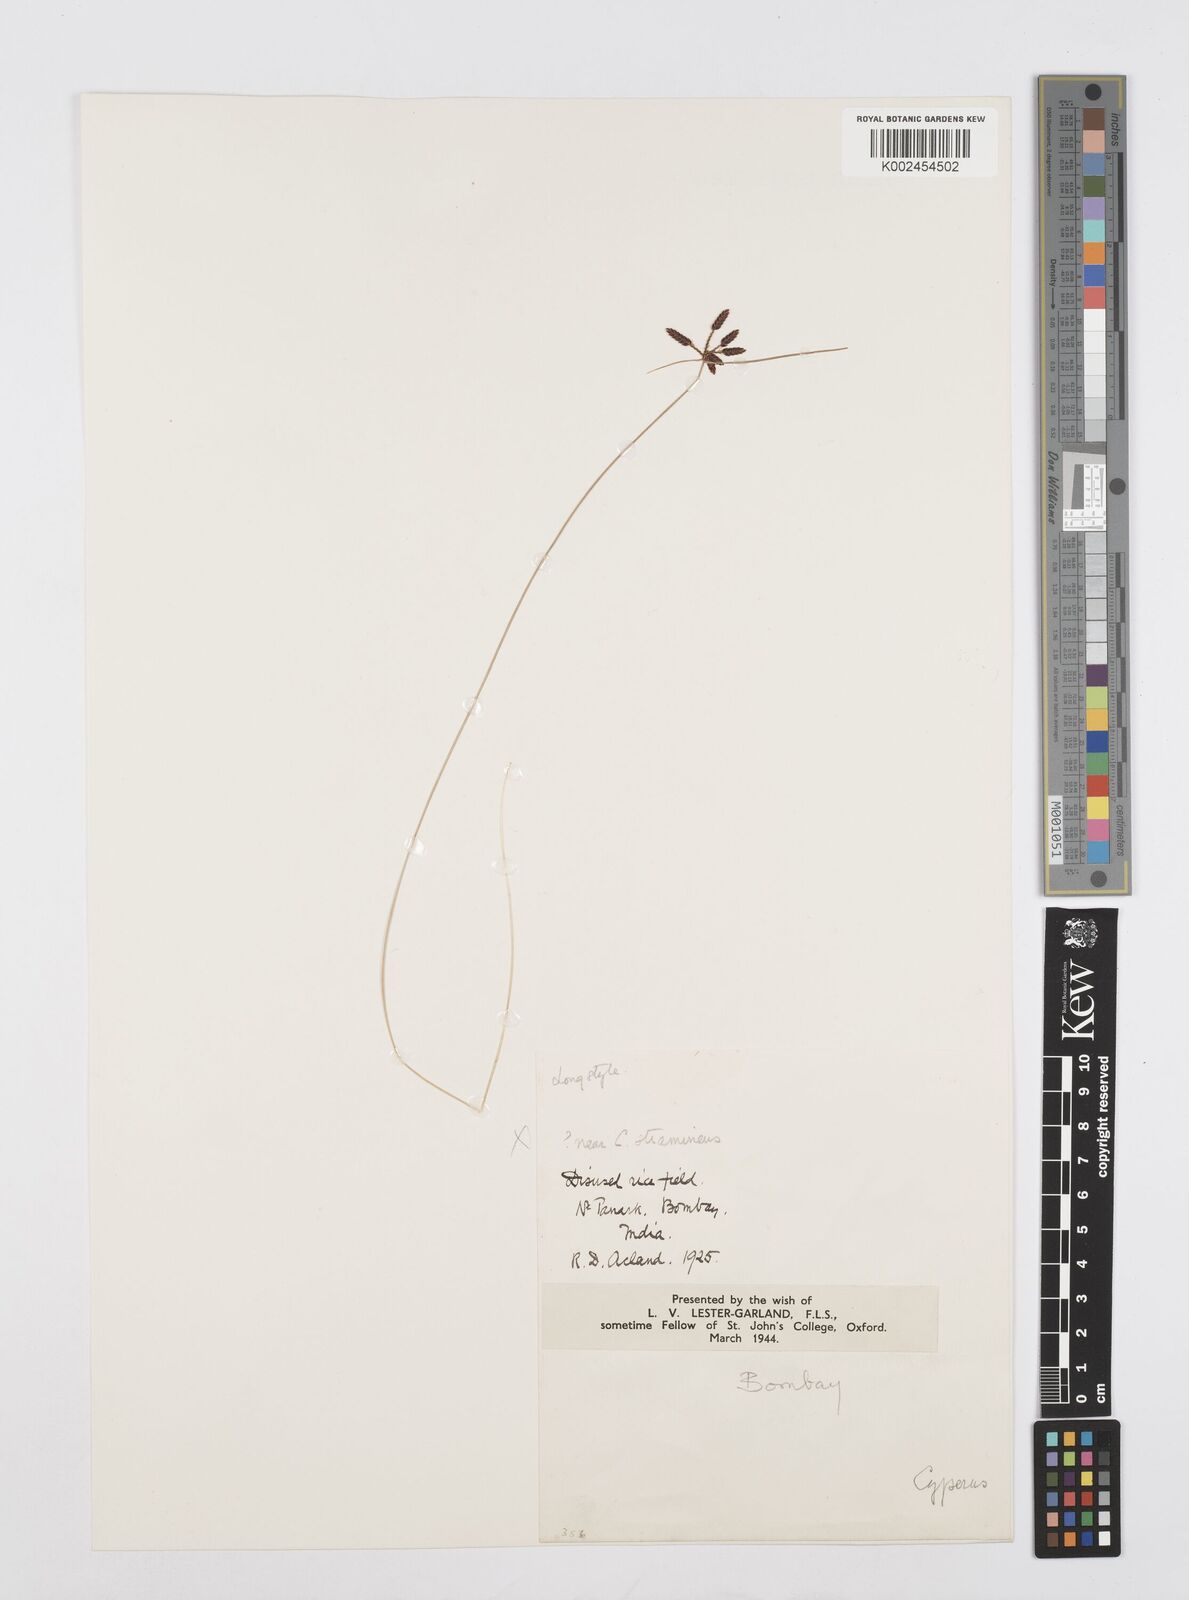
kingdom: Plantae
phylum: Tracheophyta
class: Liliopsida
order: Poales
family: Cyperaceae
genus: Cyperus
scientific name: Cyperus
